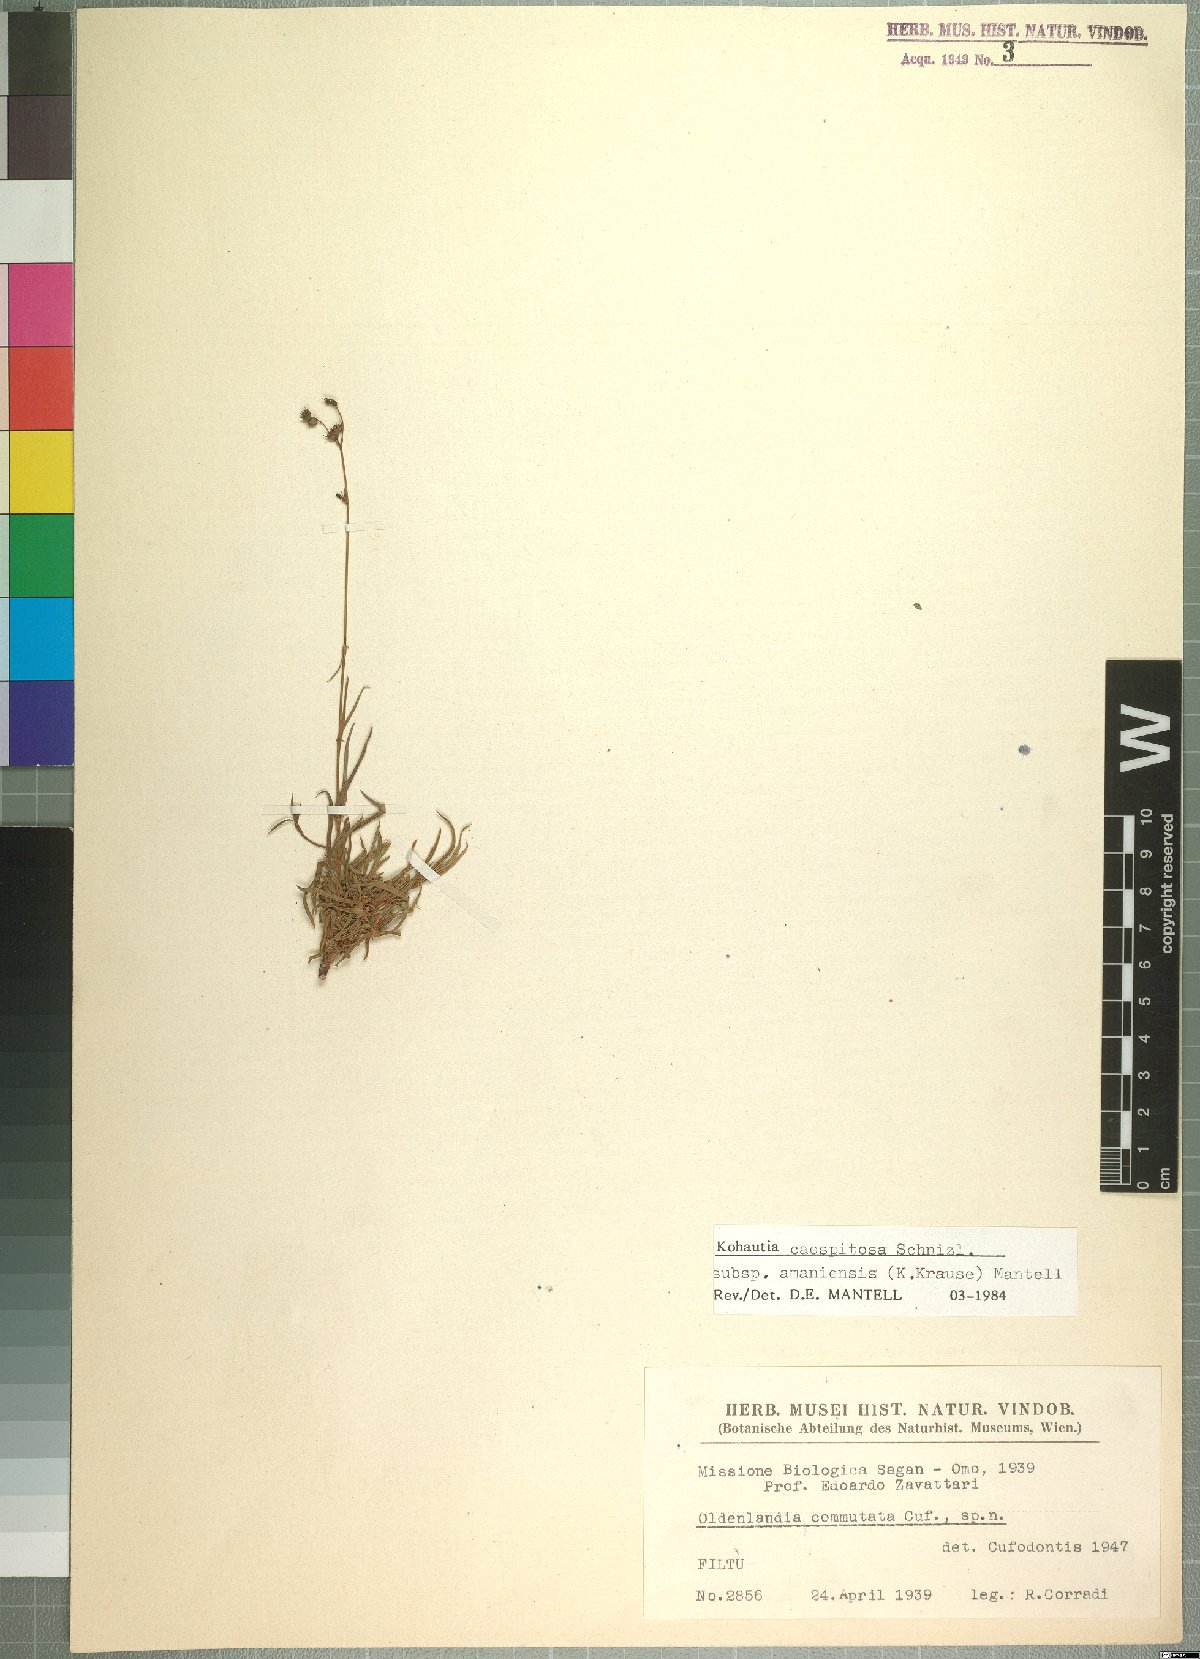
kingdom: Plantae
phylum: Tracheophyta
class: Magnoliopsida
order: Gentianales
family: Rubiaceae
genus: Kohautia
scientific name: Kohautia caespitosa
